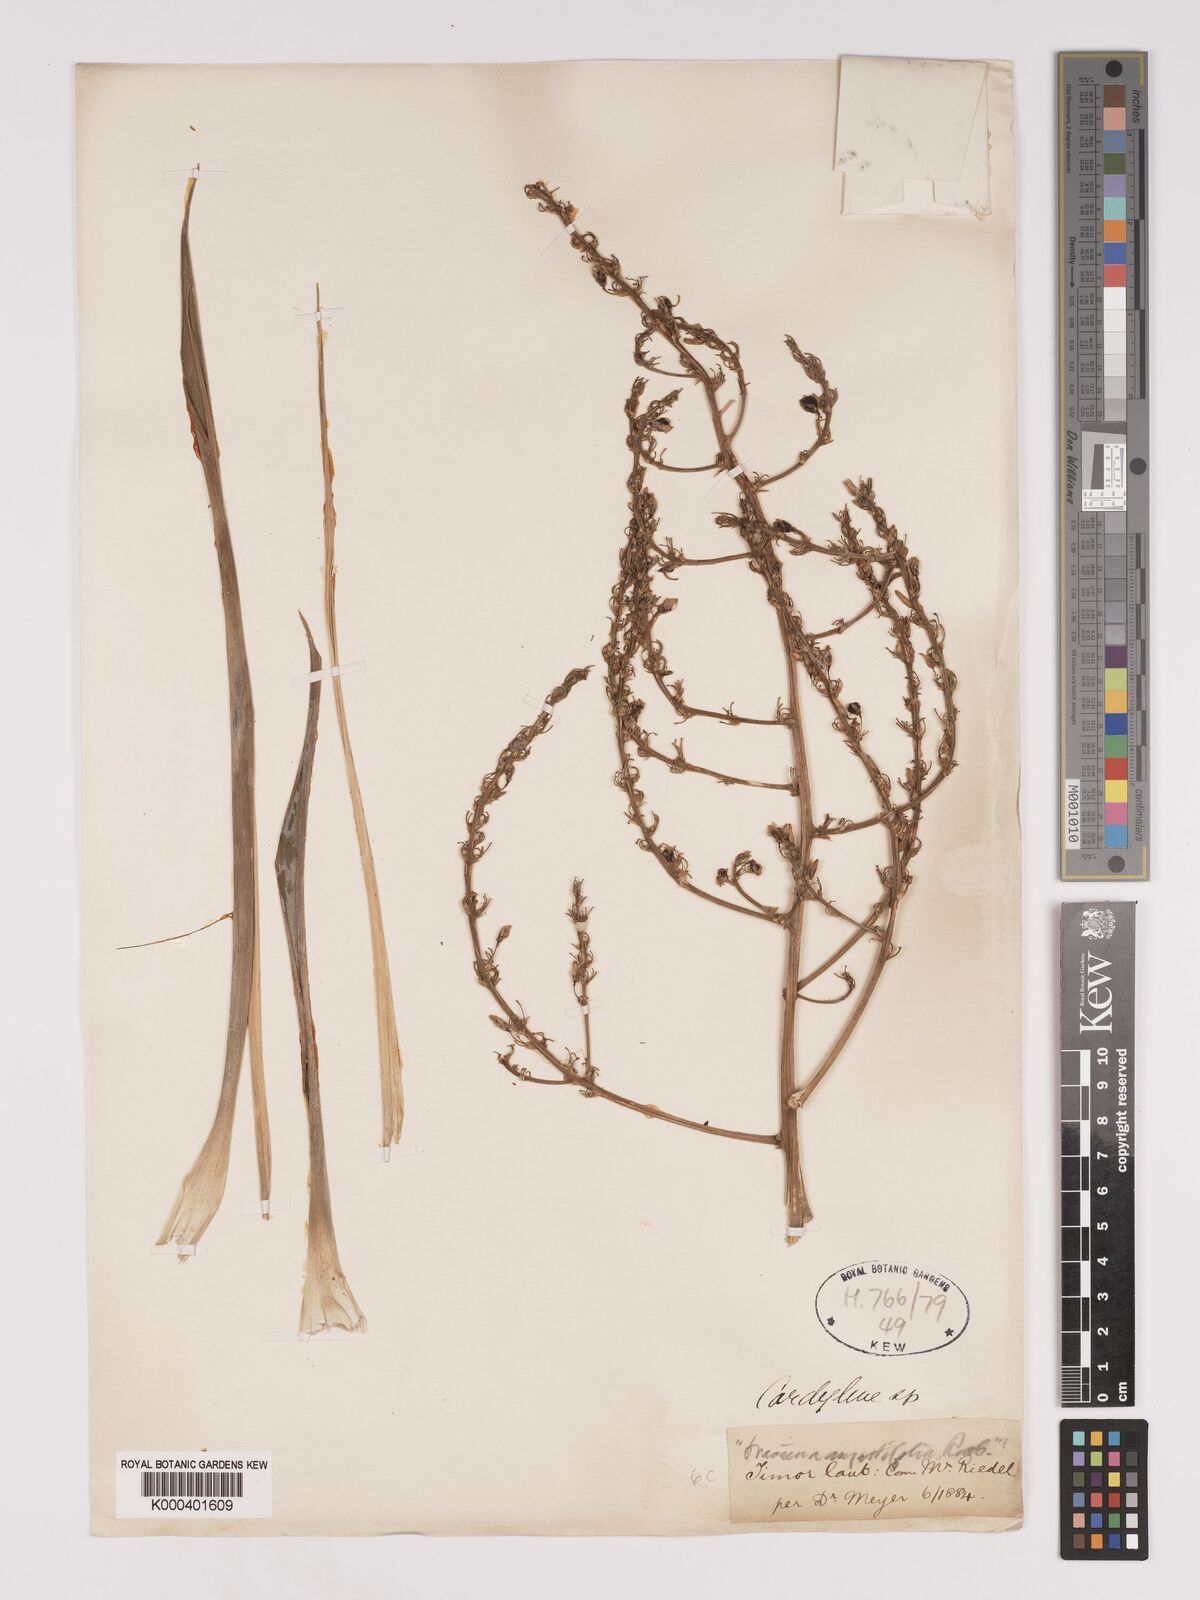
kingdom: Plantae
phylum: Tracheophyta
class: Liliopsida
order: Asparagales
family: Asparagaceae
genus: Dracaena
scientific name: Dracaena angustifolia
